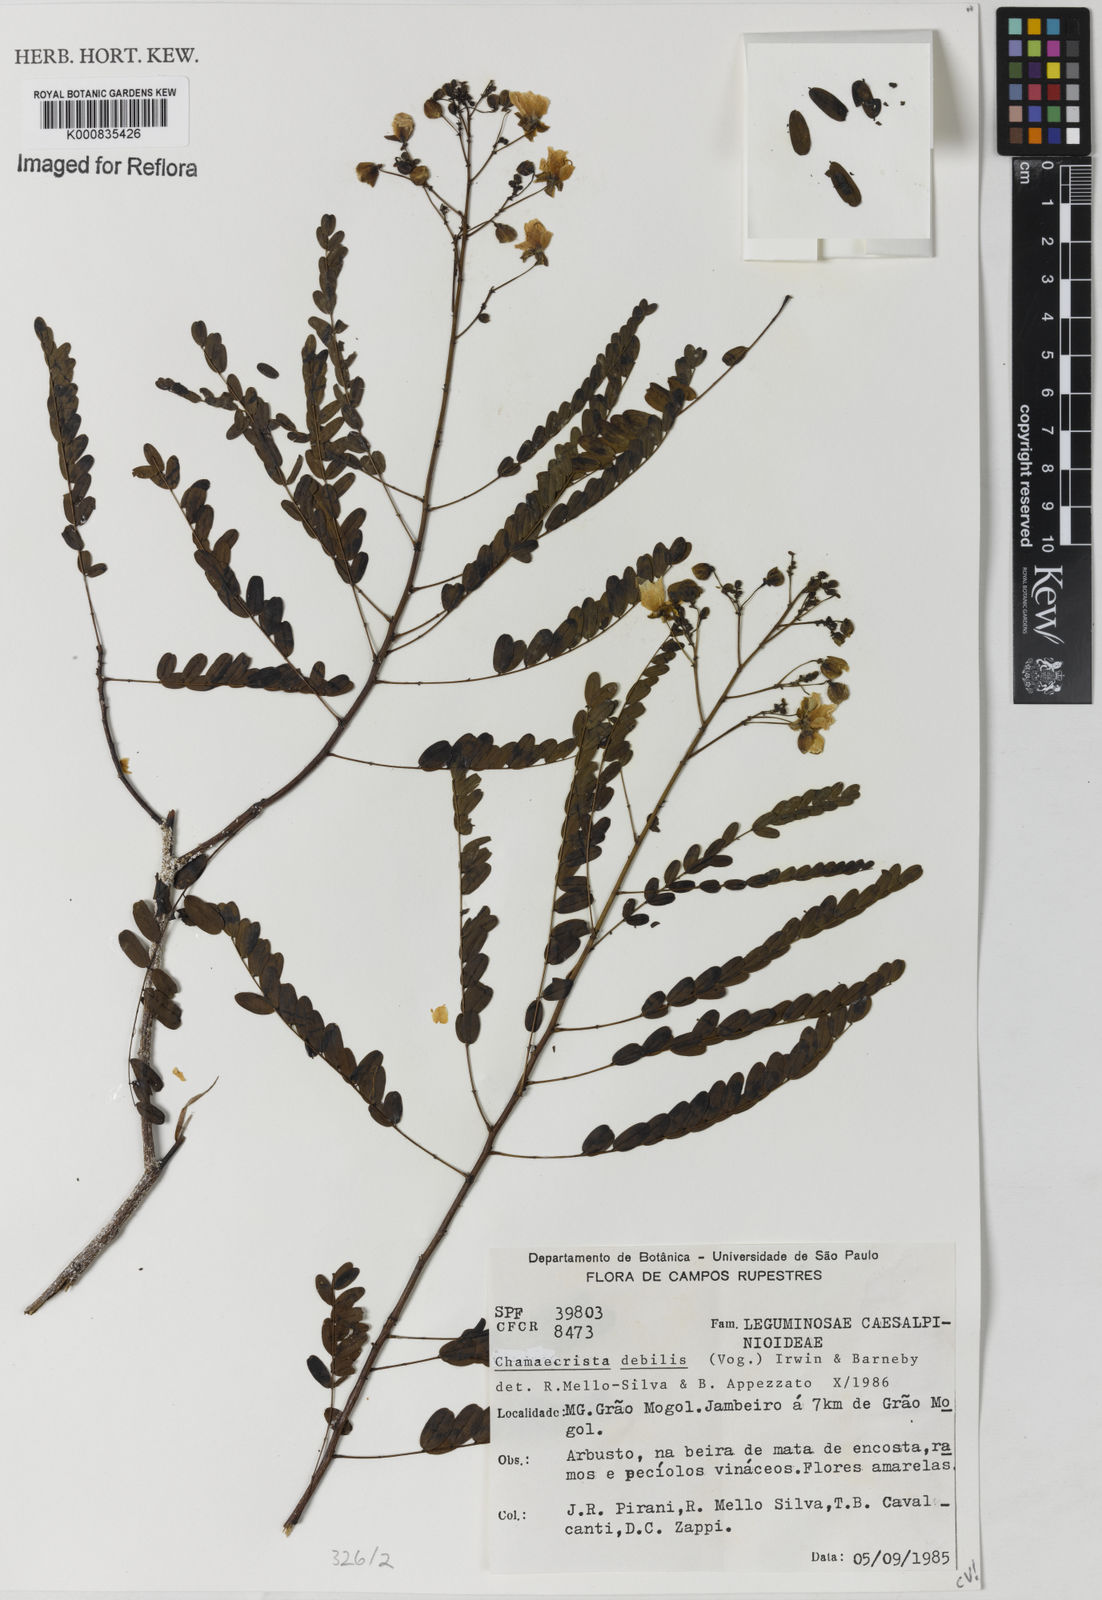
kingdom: Plantae
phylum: Tracheophyta
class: Magnoliopsida
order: Fabales
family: Fabaceae
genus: Chamaecrista
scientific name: Chamaecrista debilis
